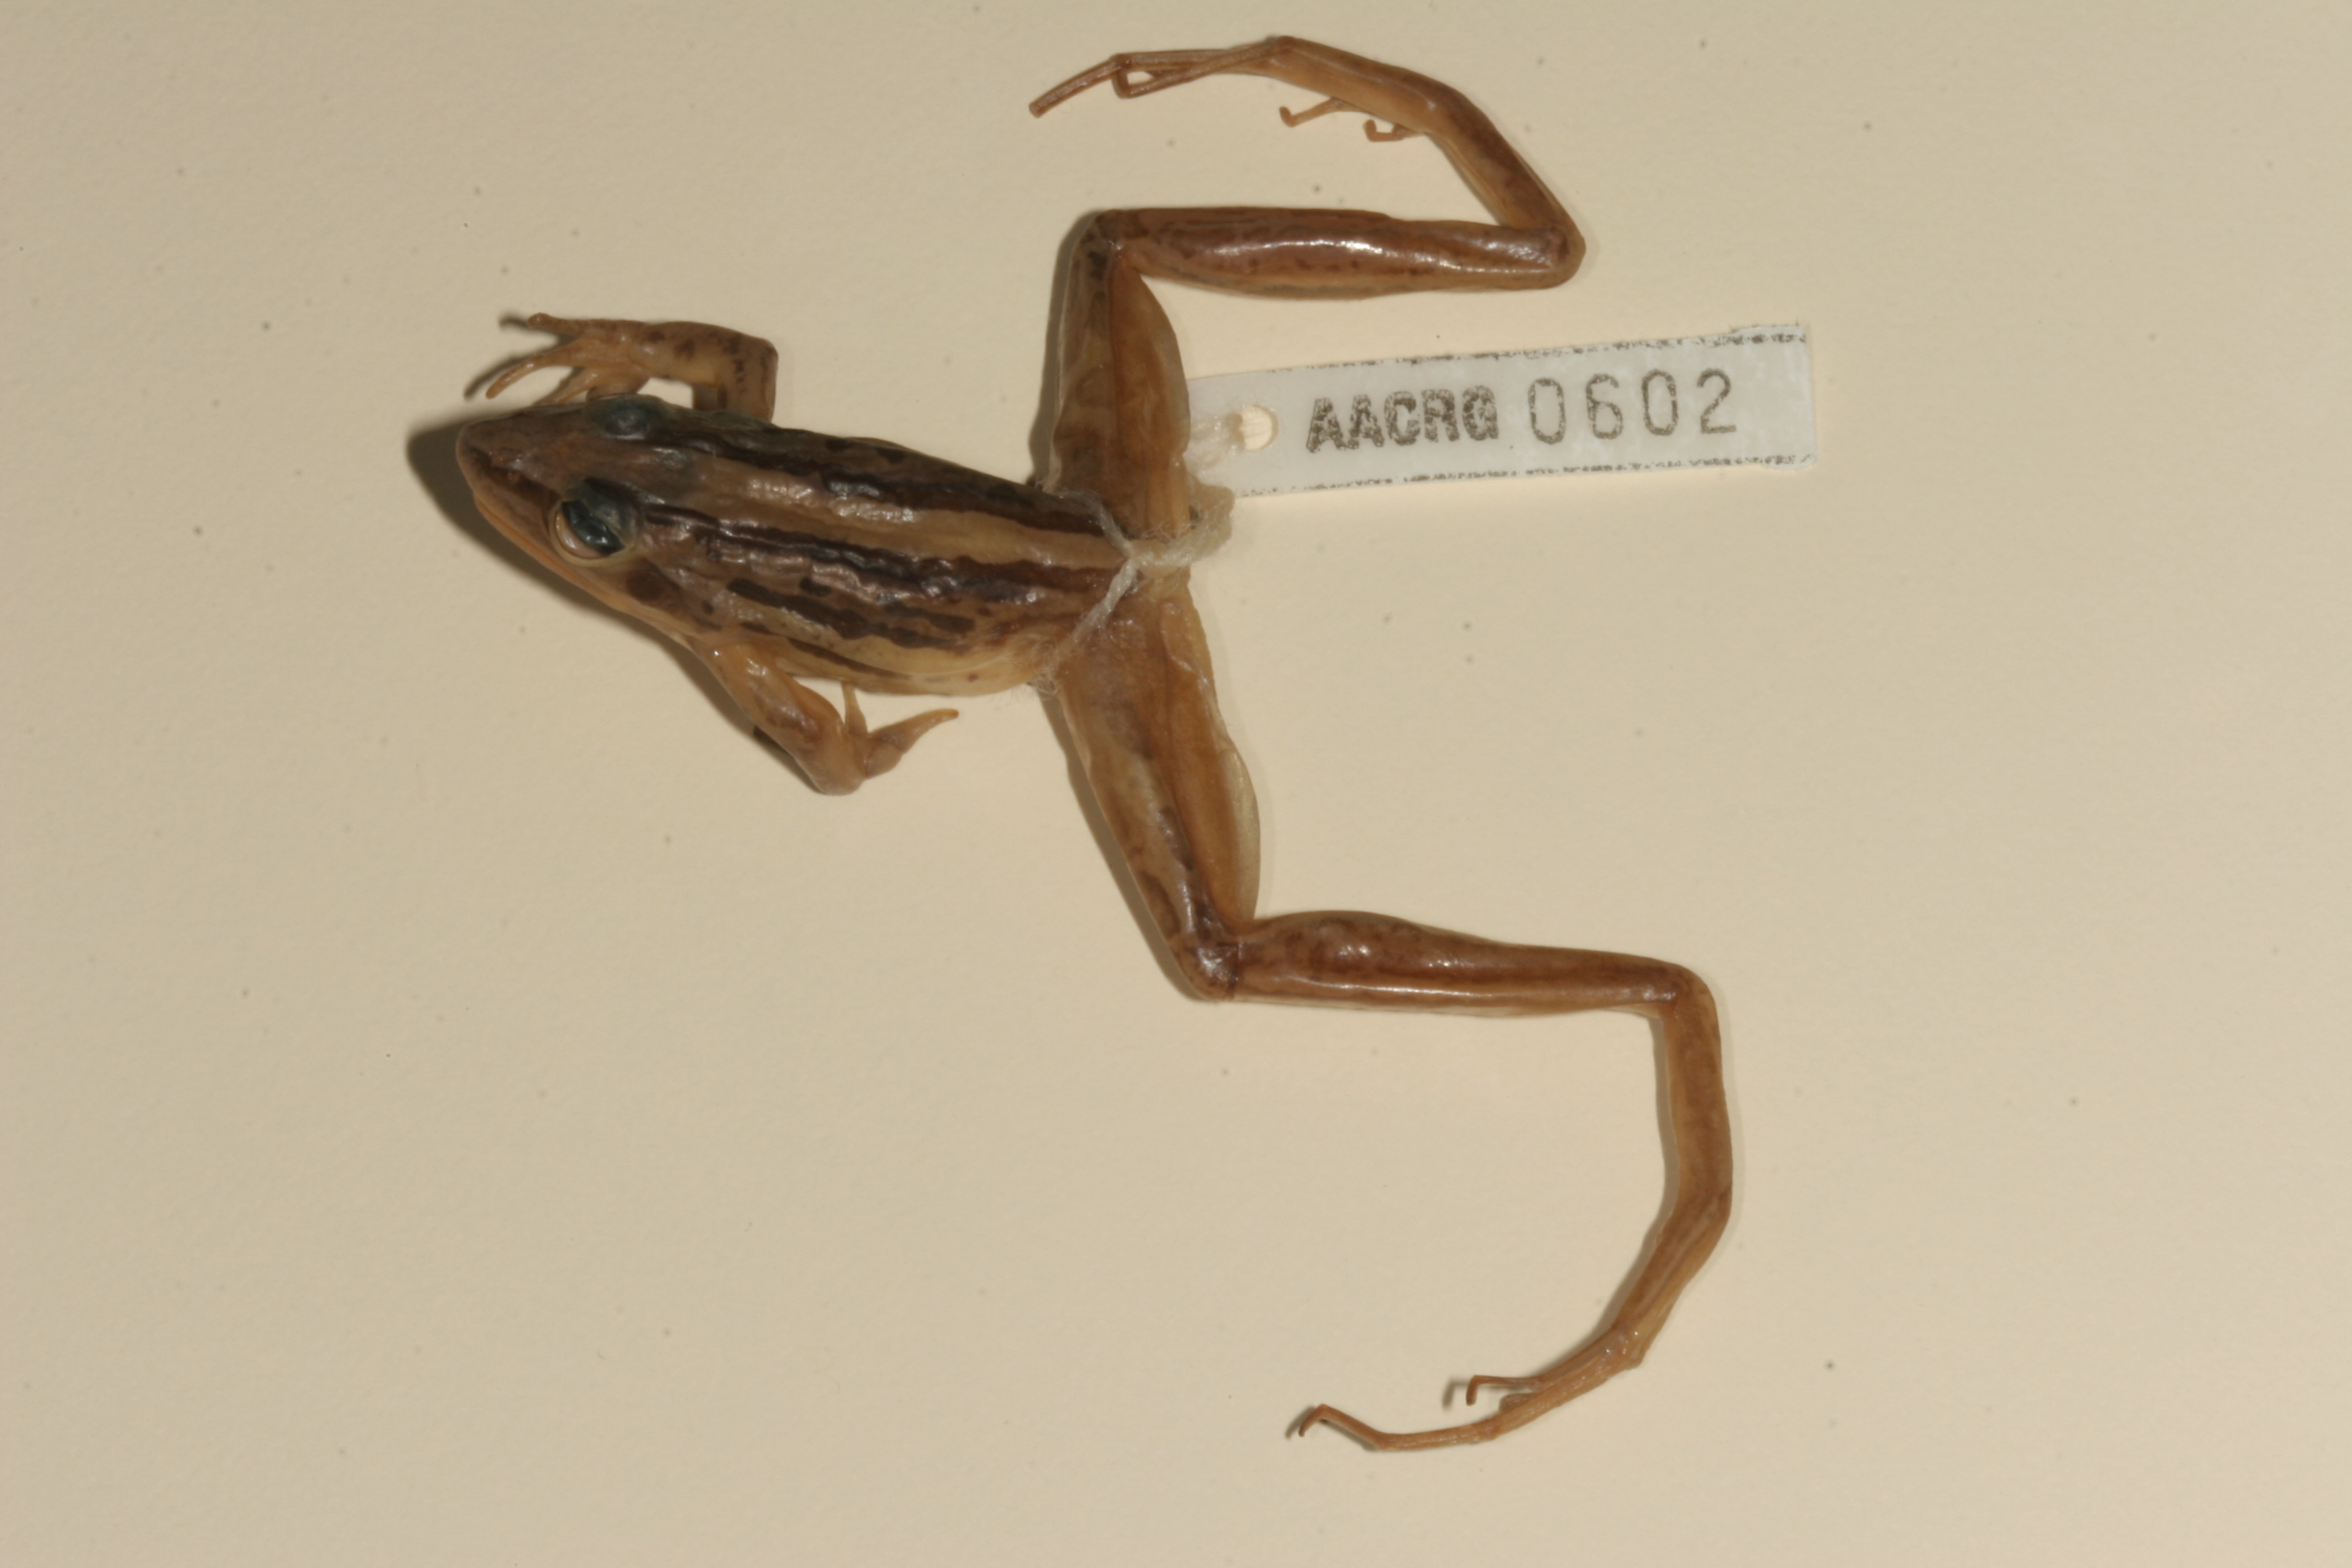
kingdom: Animalia
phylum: Chordata
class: Amphibia
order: Anura
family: Pyxicephalidae
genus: Strongylopus
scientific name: Strongylopus fasciatus
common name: Striped stream frog
